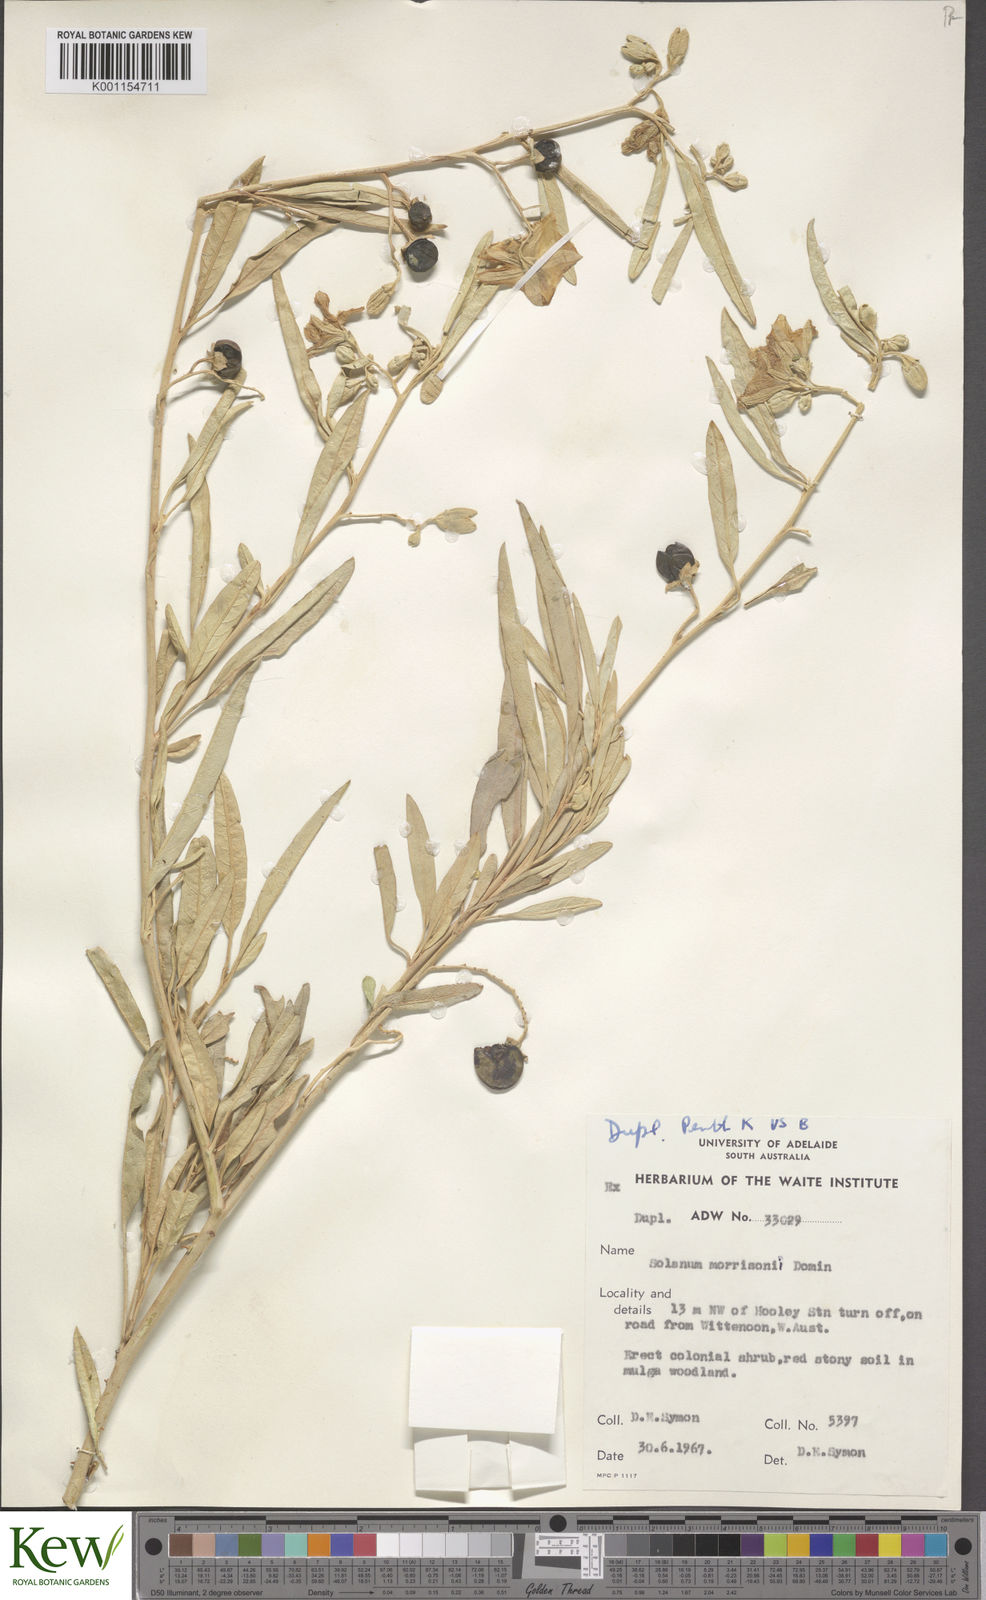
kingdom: Plantae
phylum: Tracheophyta
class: Magnoliopsida
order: Solanales
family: Solanaceae
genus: Solanum
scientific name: Solanum sturtianum
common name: Thargomindah nightshade
